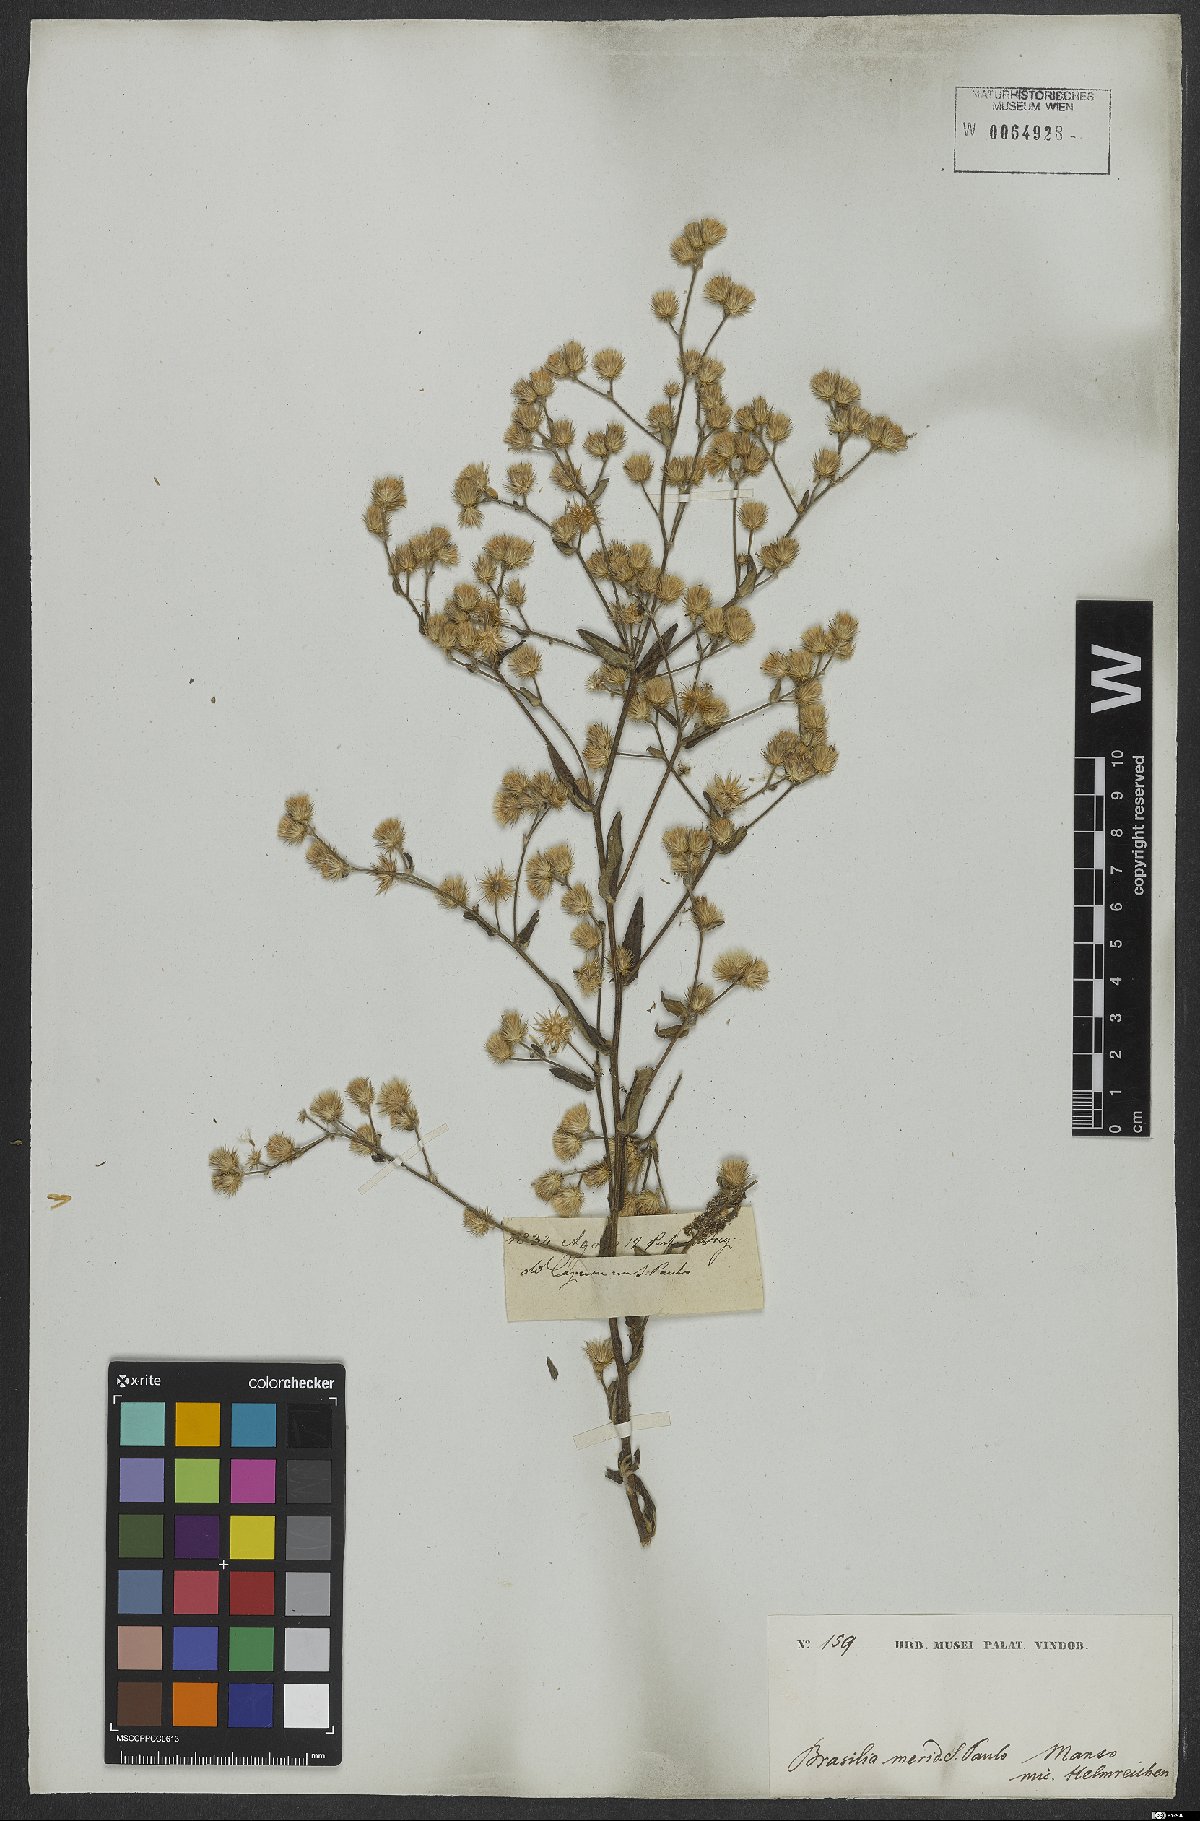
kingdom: Plantae
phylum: Tracheophyta
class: Magnoliopsida
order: Asterales
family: Asteraceae
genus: Echinocoryne
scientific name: Echinocoryne stricta
